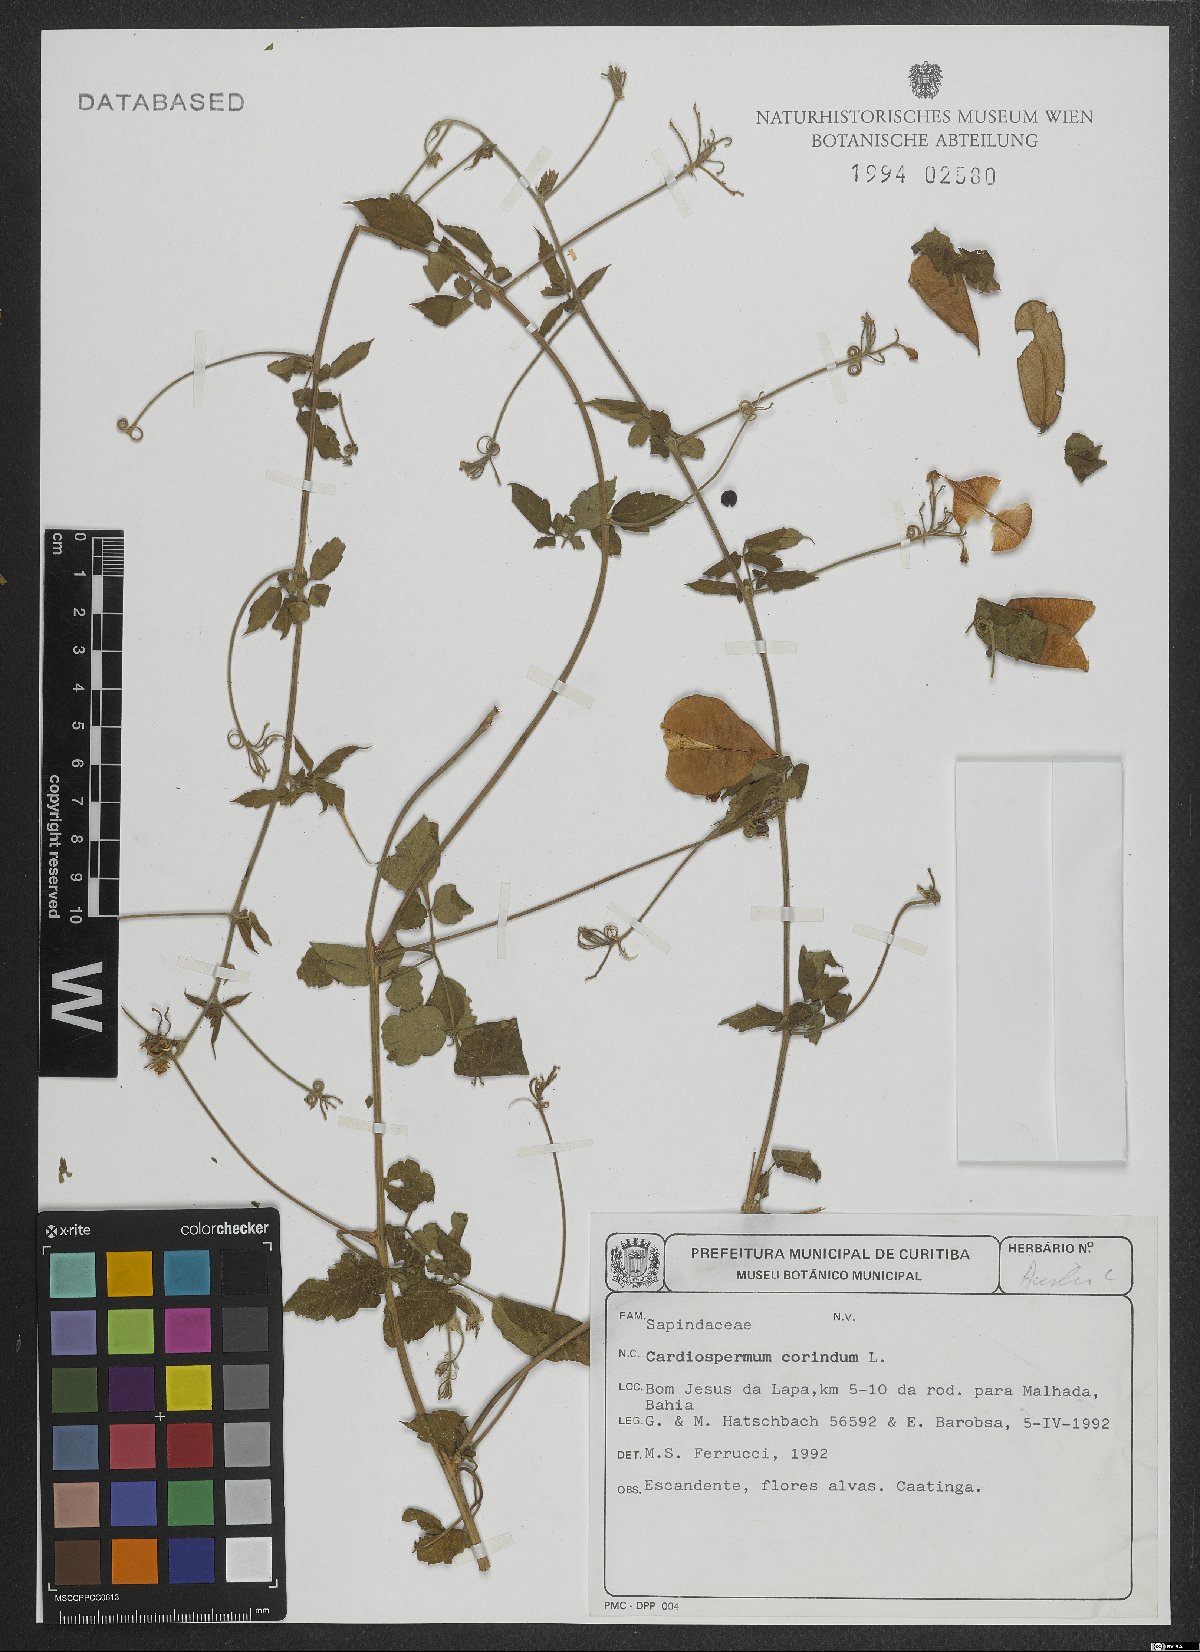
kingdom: Plantae
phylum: Tracheophyta
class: Magnoliopsida
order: Sapindales
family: Sapindaceae
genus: Cardiospermum
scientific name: Cardiospermum corindum
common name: Faux persil
